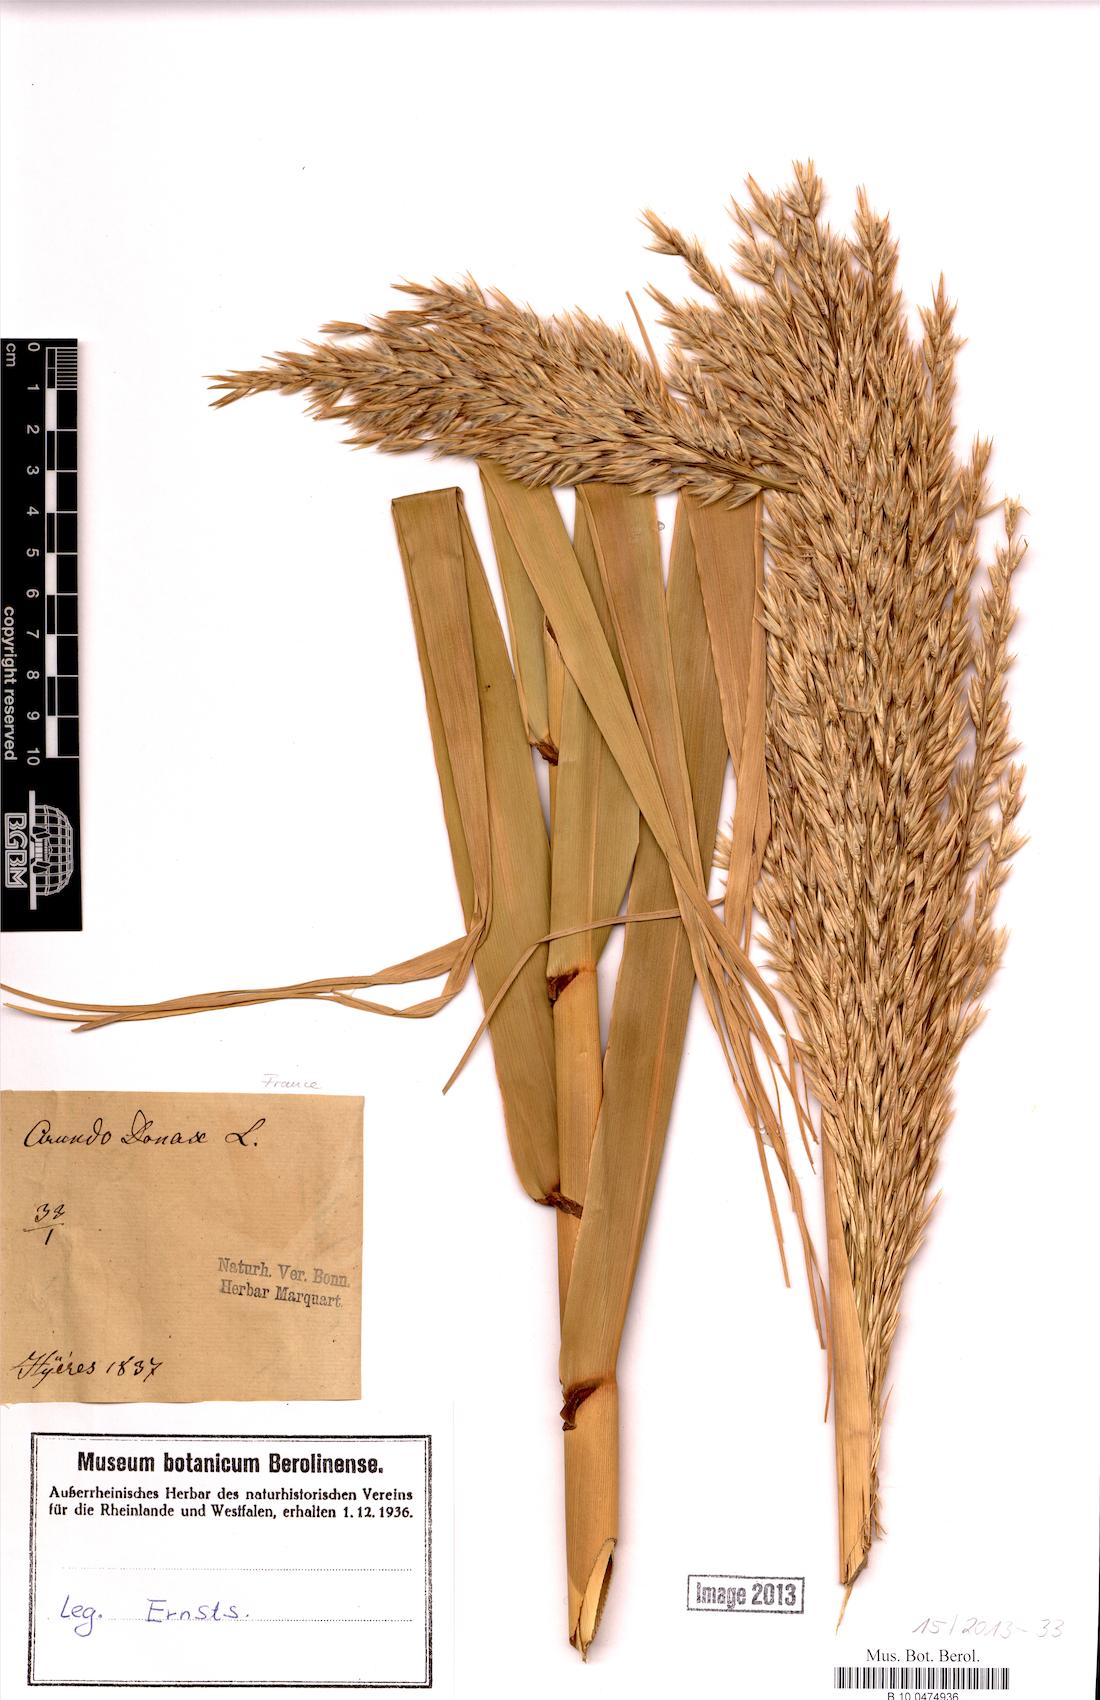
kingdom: Plantae
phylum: Tracheophyta
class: Liliopsida
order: Poales
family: Poaceae
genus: Arundo
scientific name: Arundo donax
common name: Giant reed
